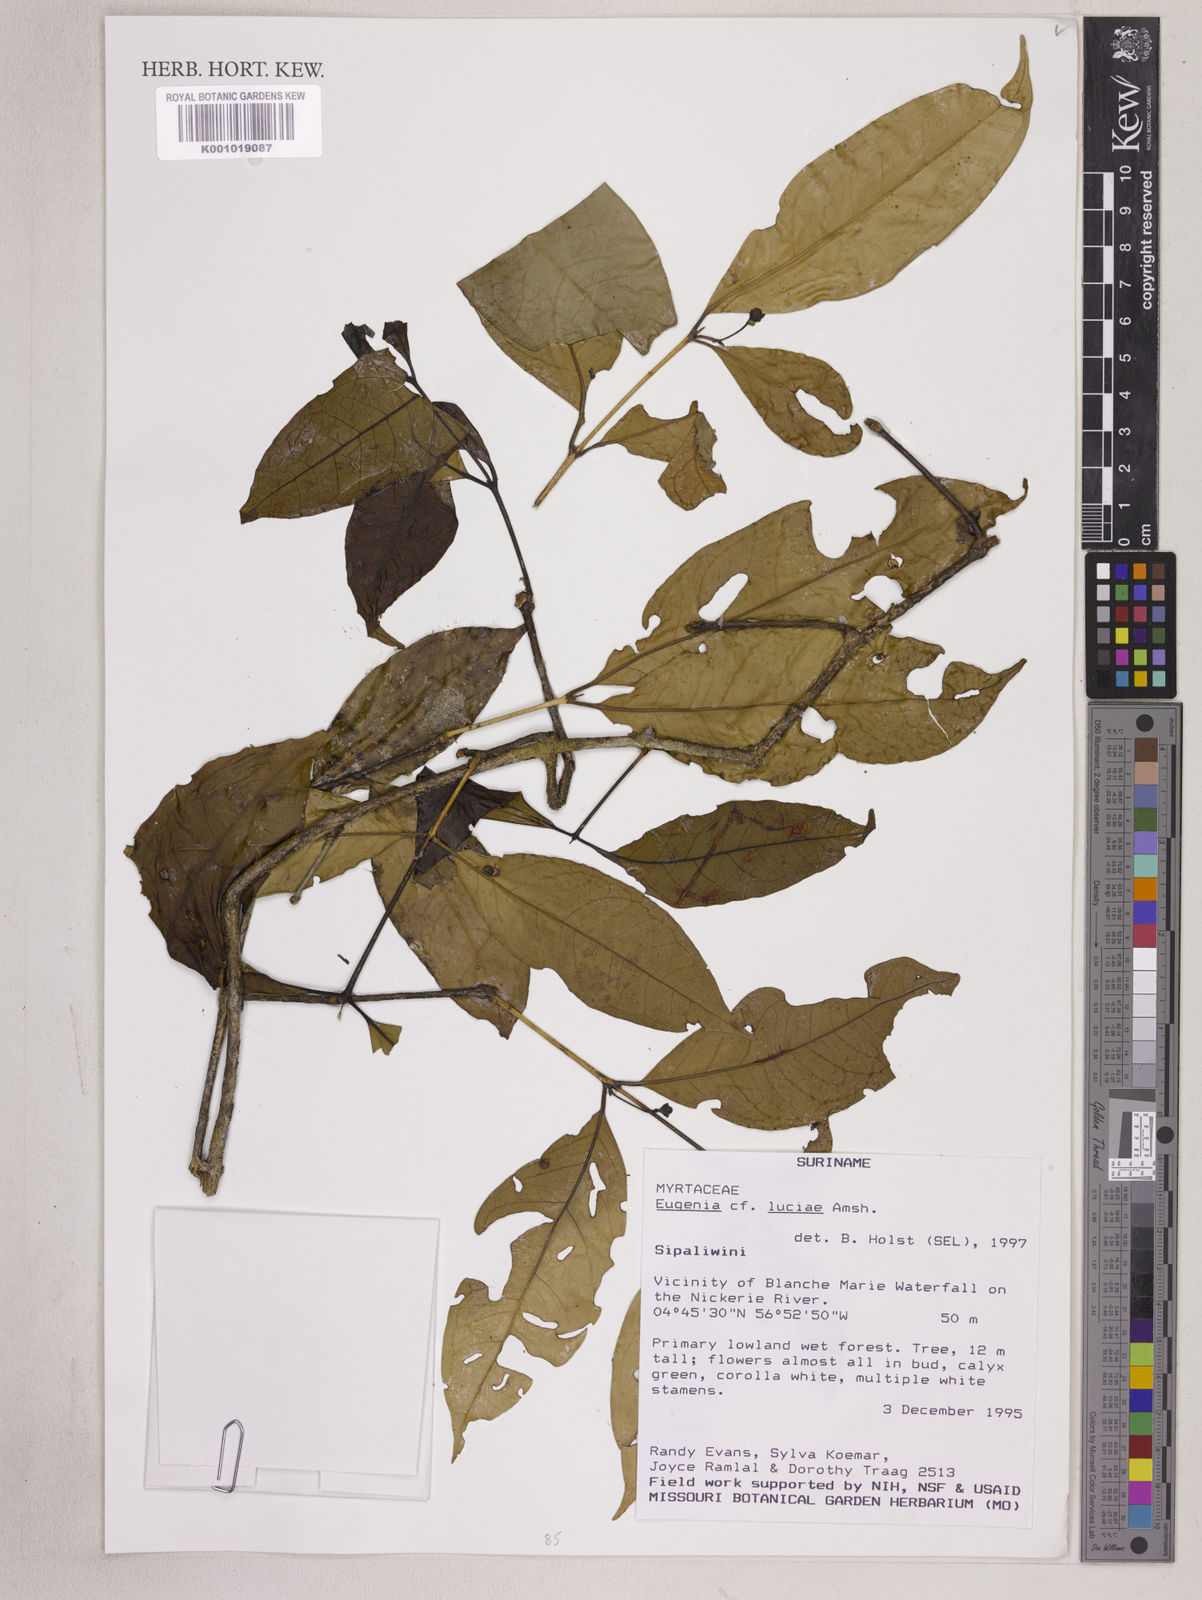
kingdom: Plantae
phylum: Tracheophyta
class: Magnoliopsida
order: Myrtales
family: Myrtaceae
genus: Eugenia
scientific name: Eugenia luciae
